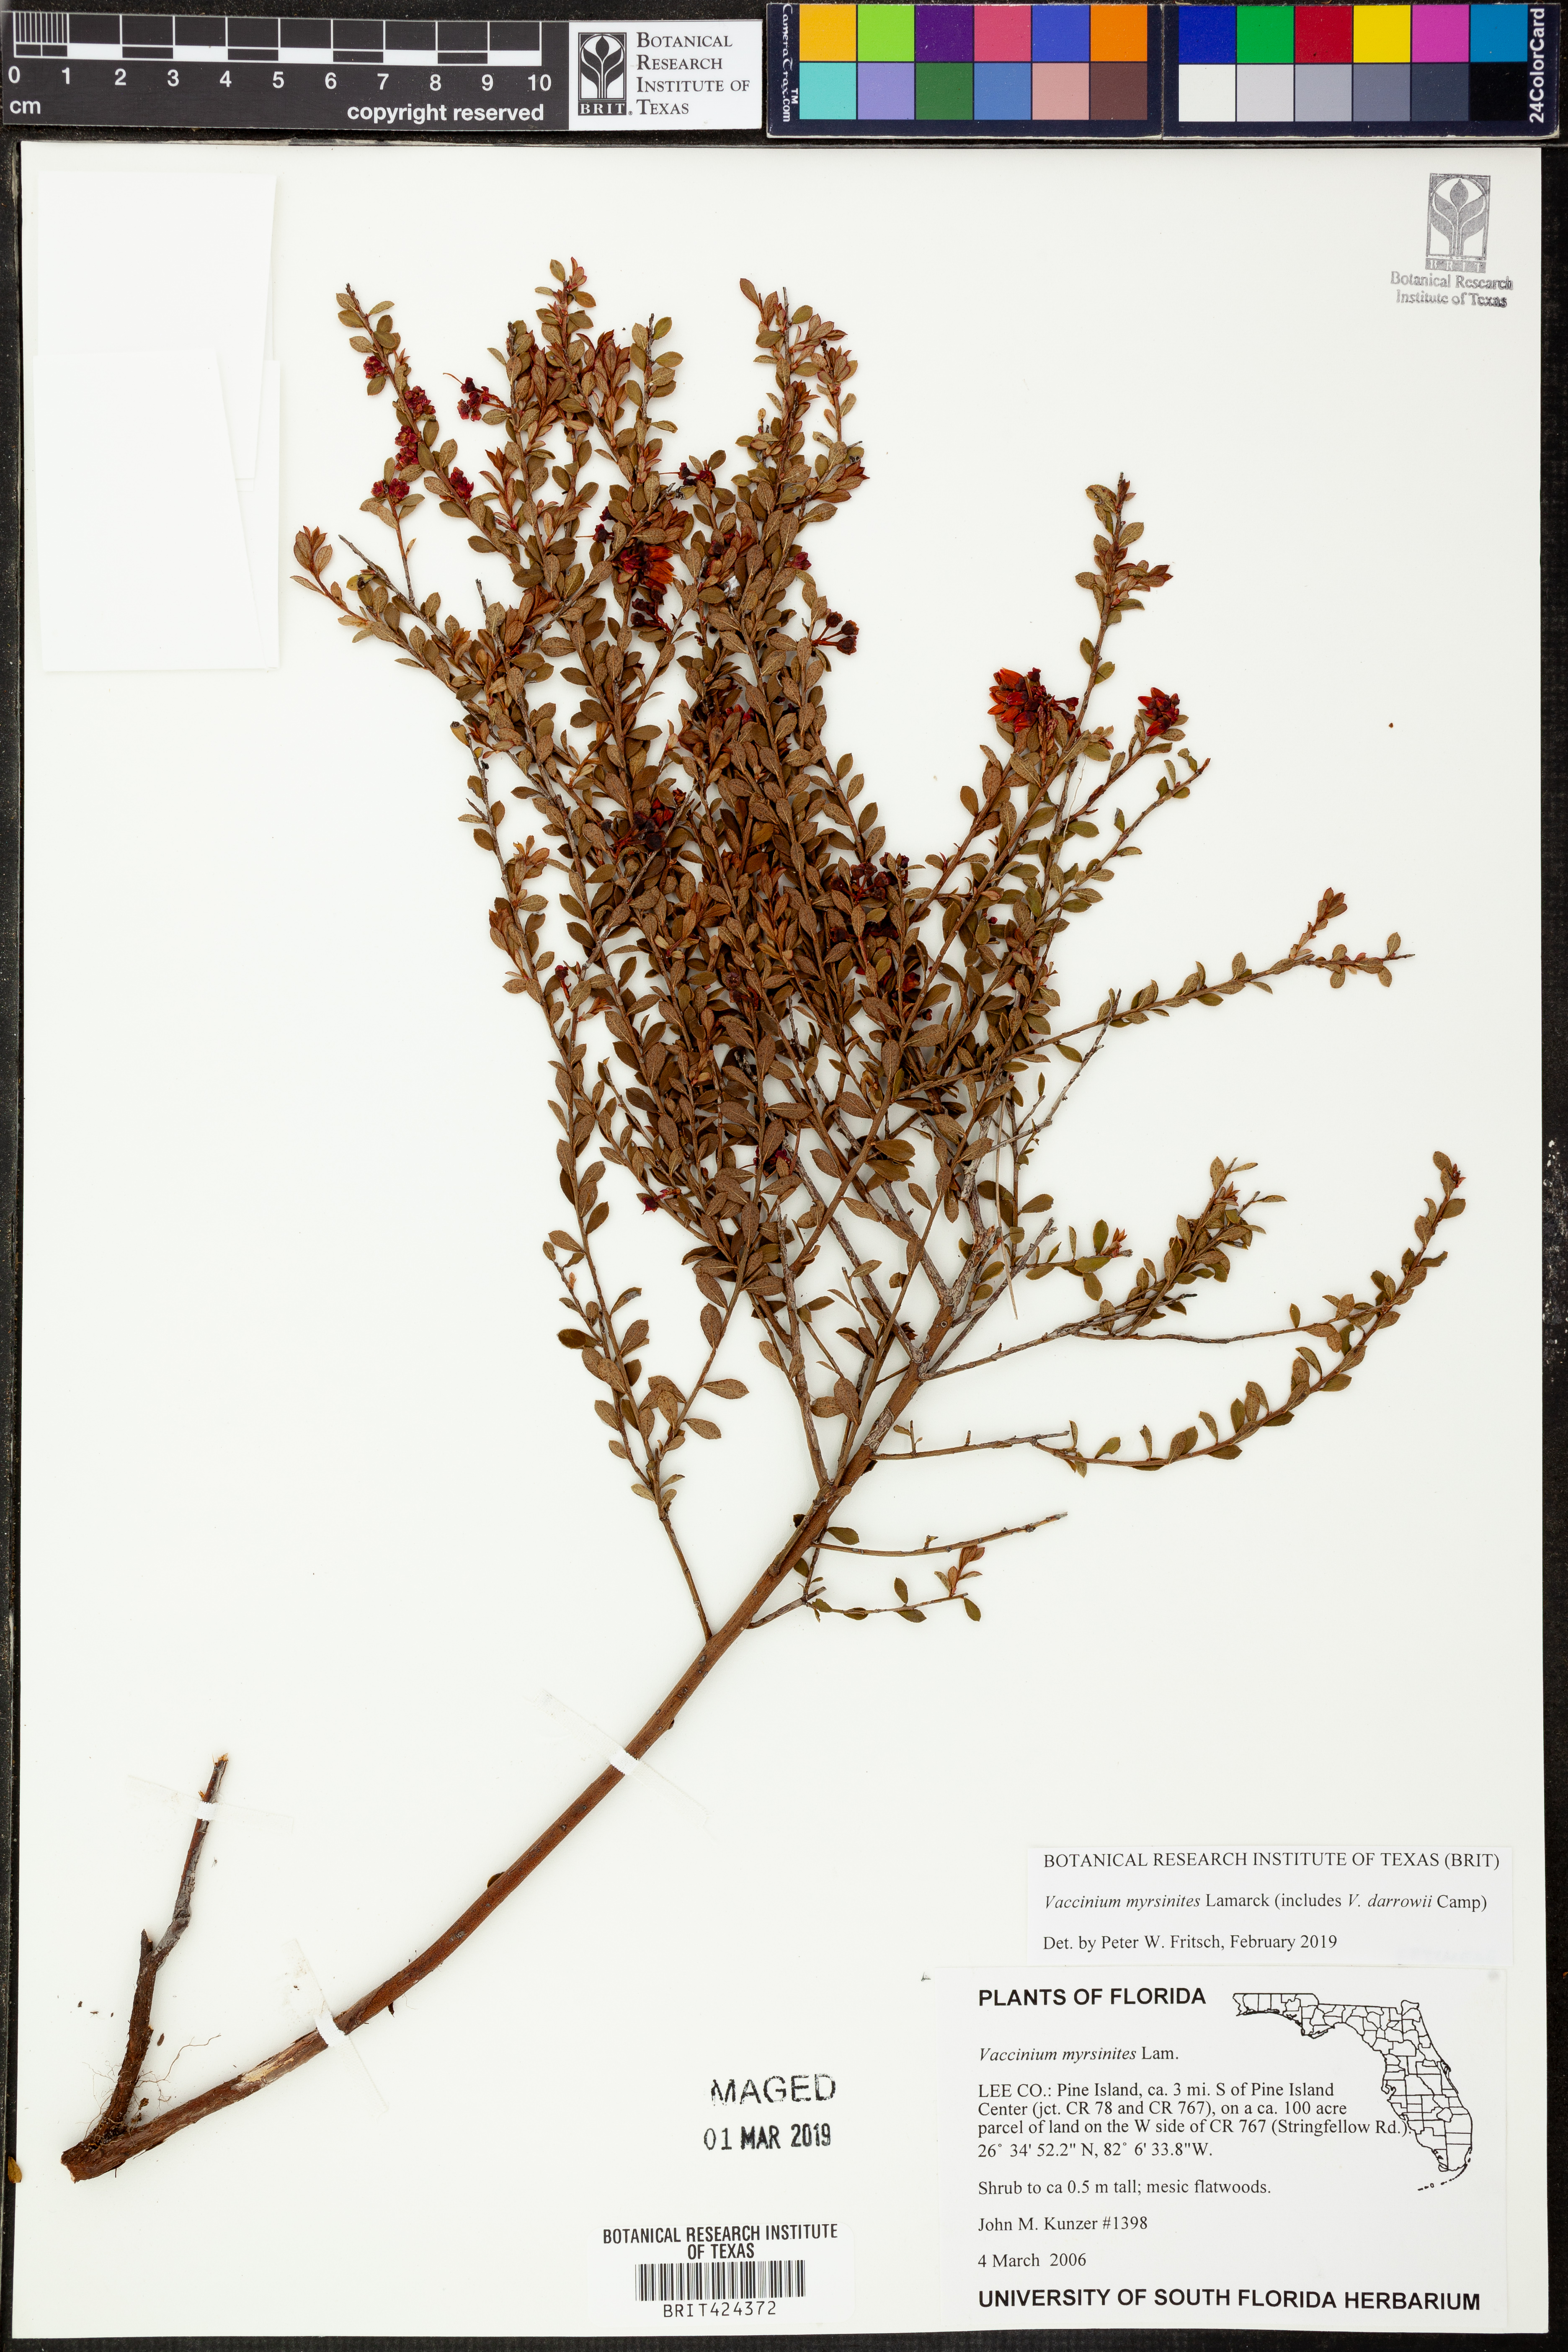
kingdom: Plantae
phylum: Tracheophyta
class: Magnoliopsida
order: Ericales
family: Ericaceae
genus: Vaccinium
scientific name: Vaccinium myrsinites
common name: Evergreen blueberry
